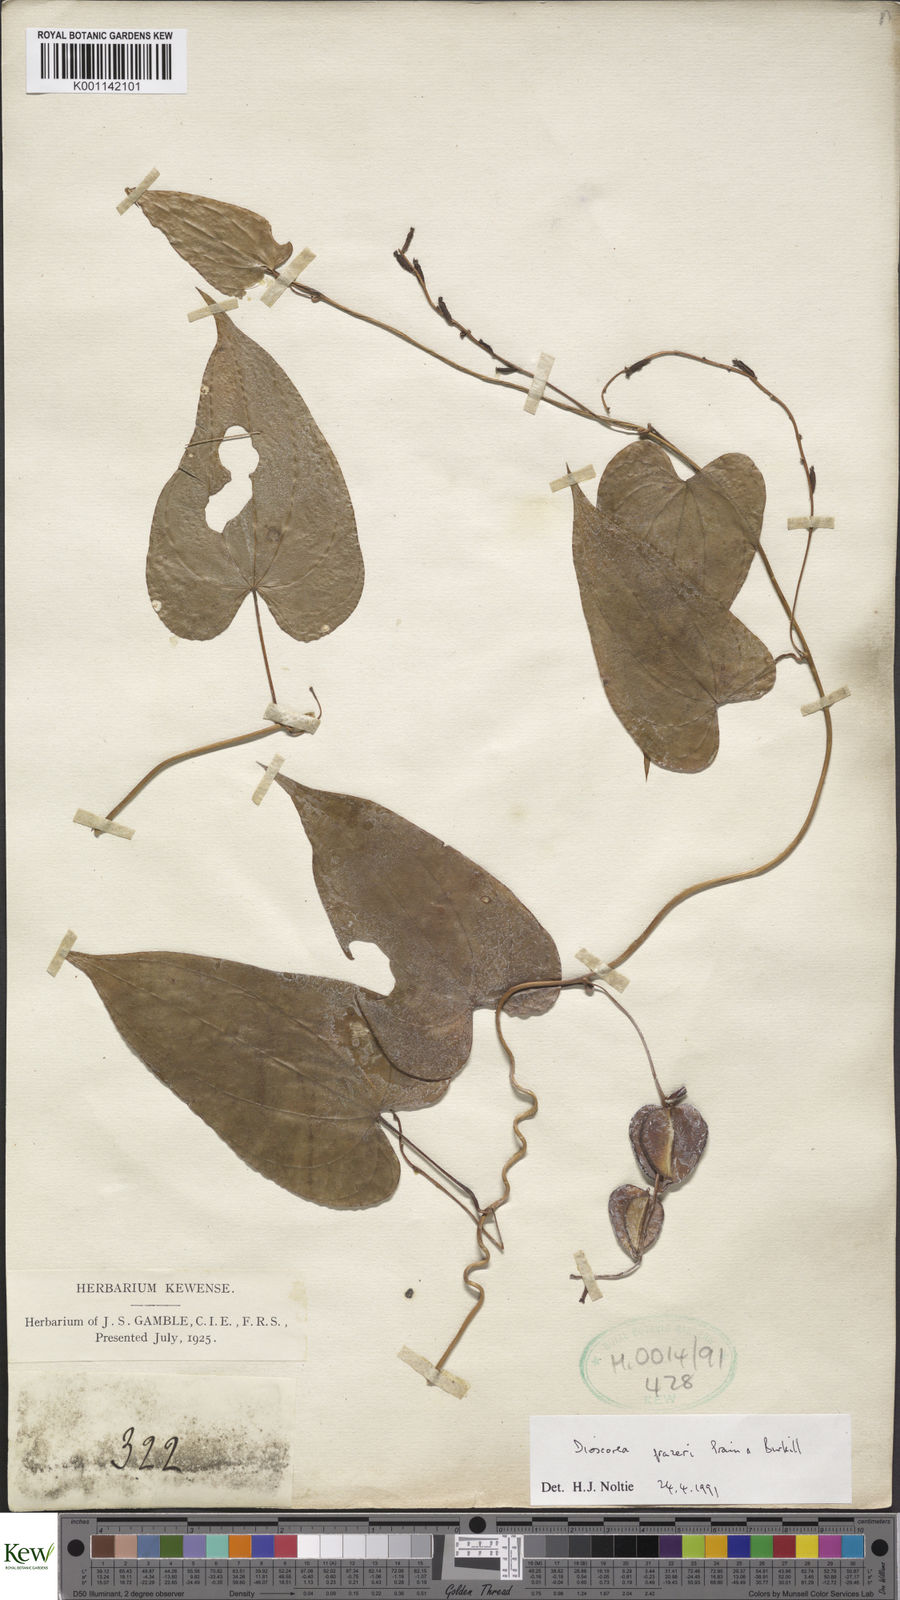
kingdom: Plantae
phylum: Tracheophyta
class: Liliopsida
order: Dioscoreales
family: Dioscoreaceae
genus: Dioscorea
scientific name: Dioscorea prazeri
